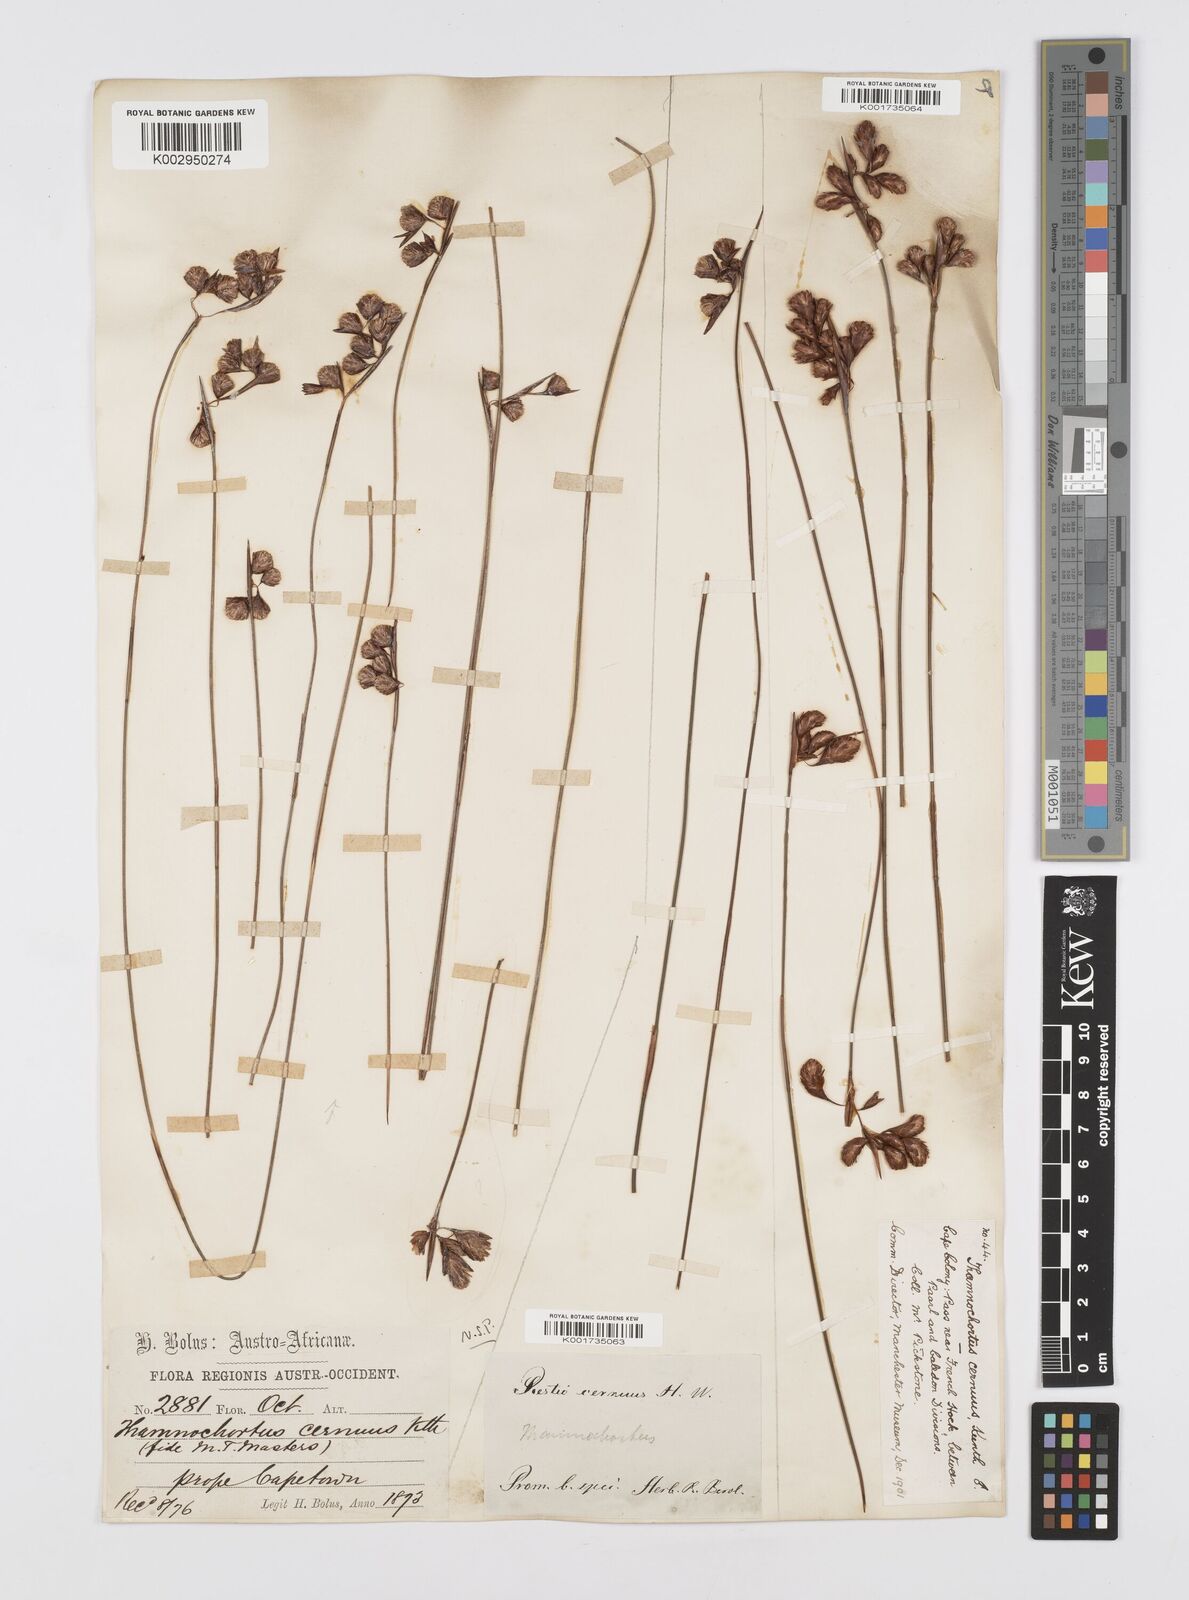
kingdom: Plantae
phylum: Tracheophyta
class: Liliopsida
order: Poales
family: Restionaceae
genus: Staberoha
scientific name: Staberoha cernua
